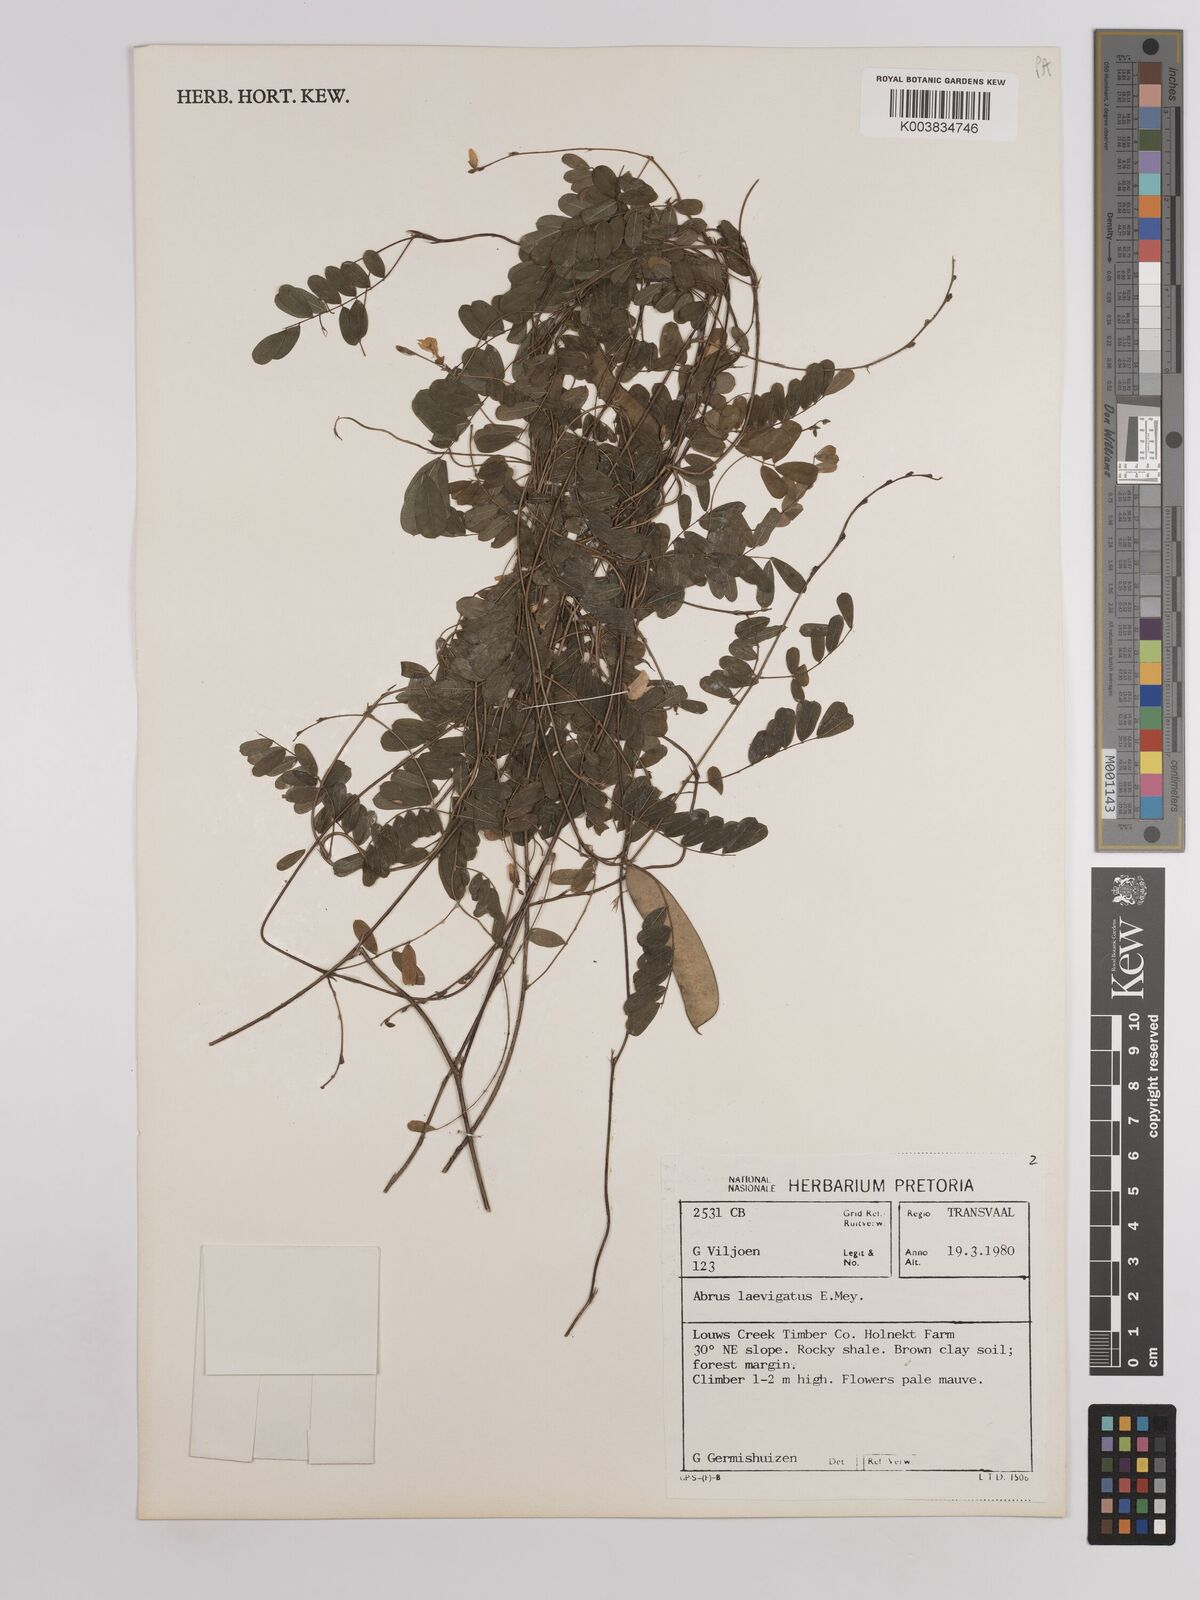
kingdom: Plantae
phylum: Tracheophyta
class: Magnoliopsida
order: Fabales
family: Fabaceae
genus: Abrus
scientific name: Abrus laevigatus
